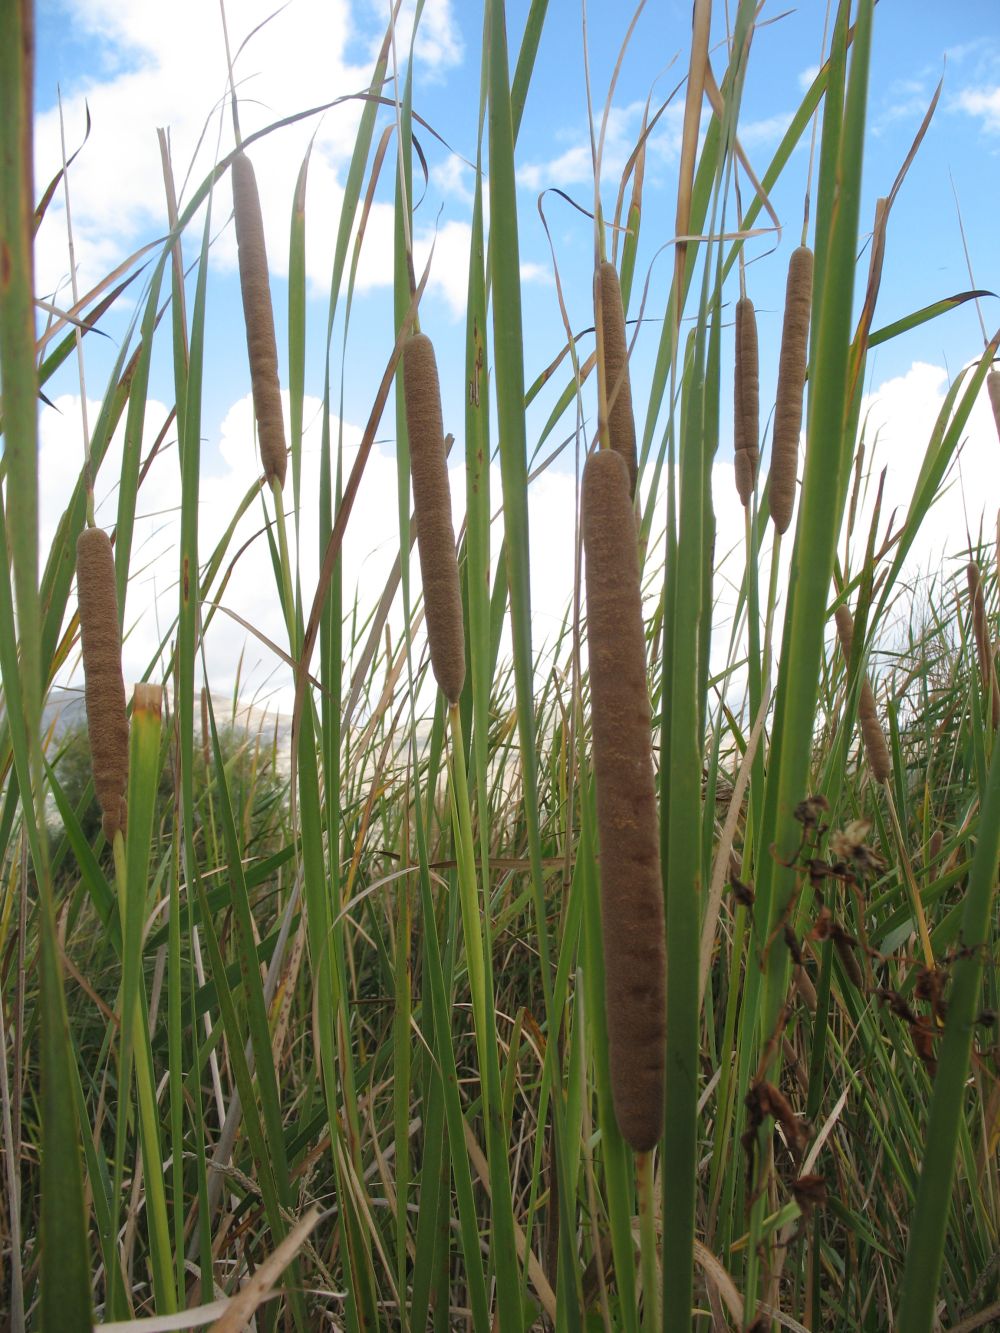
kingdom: Plantae
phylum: Tracheophyta
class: Liliopsida
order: Poales
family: Typhaceae
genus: Typha
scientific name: Typha domingensis
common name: Southern cattail
